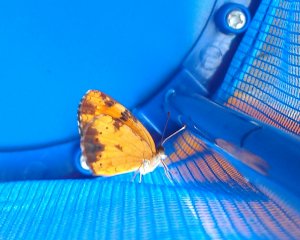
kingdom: Animalia
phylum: Arthropoda
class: Insecta
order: Lepidoptera
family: Nymphalidae
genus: Phyciodes
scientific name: Phyciodes tharos
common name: Northern Crescent
